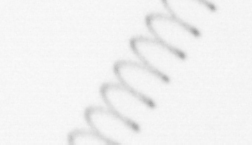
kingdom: Chromista
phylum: Ochrophyta
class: Bacillariophyceae
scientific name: Bacillariophyceae
